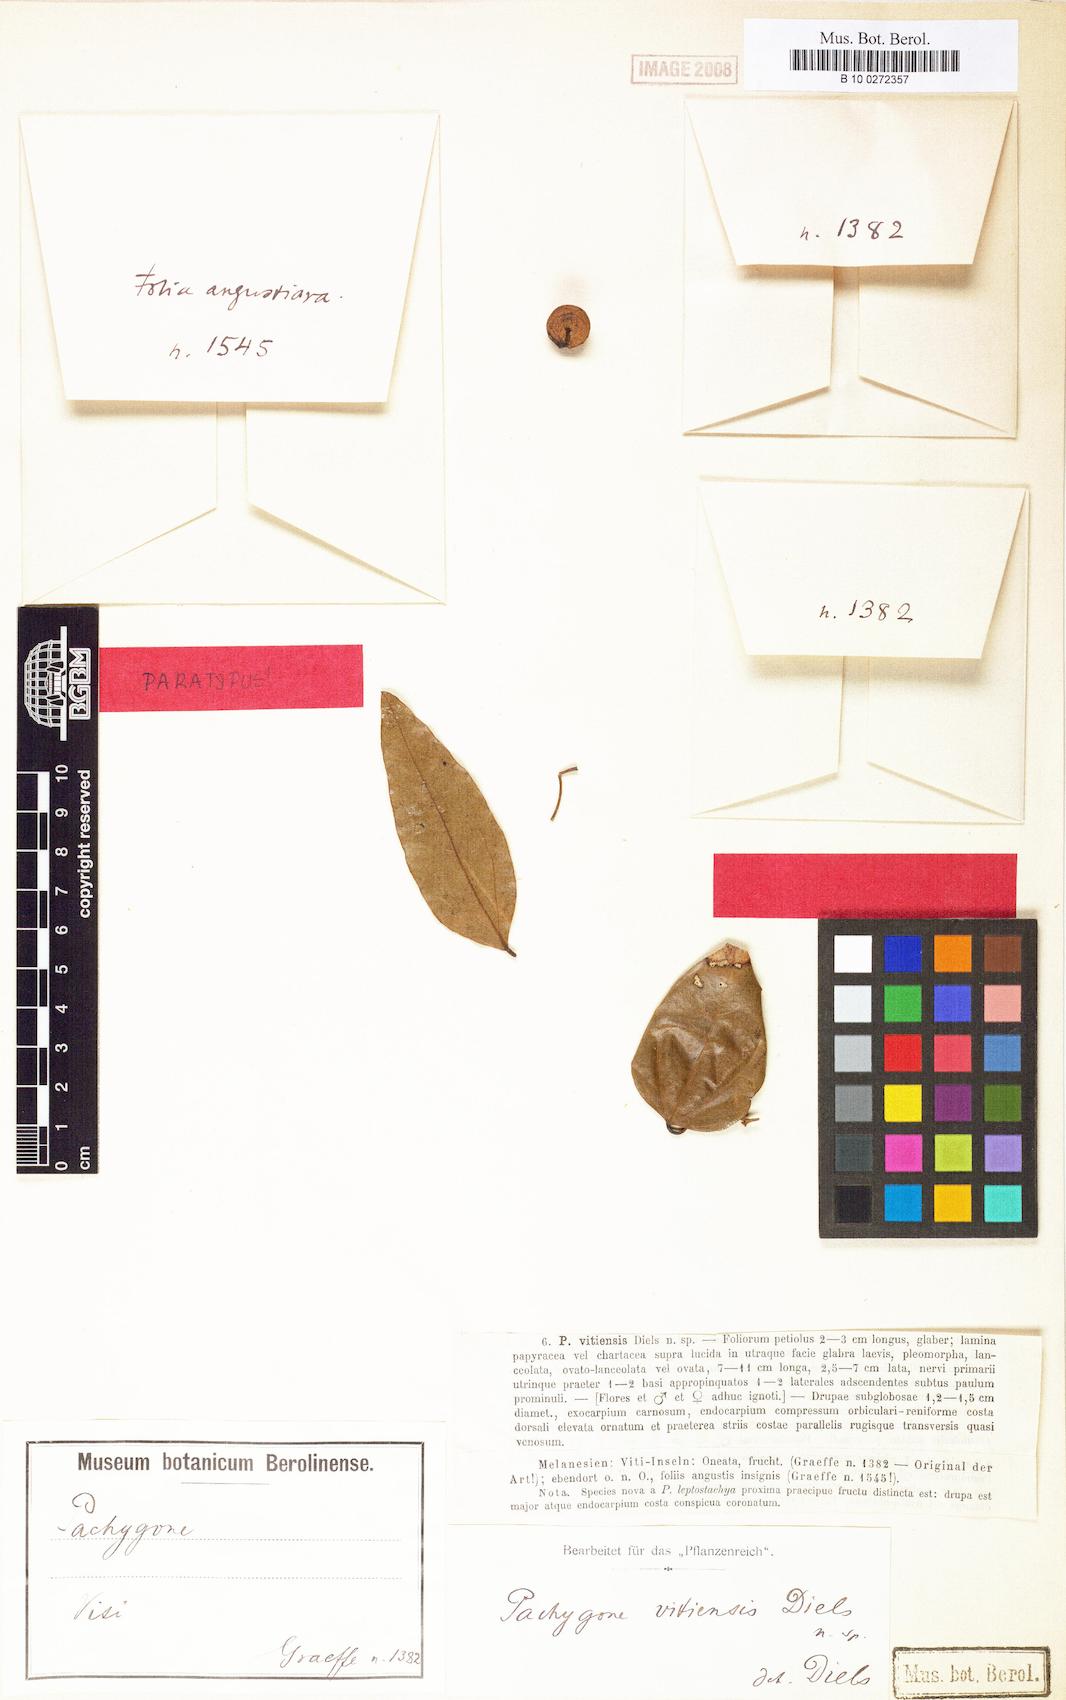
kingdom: Plantae
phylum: Tracheophyta
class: Magnoliopsida
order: Ranunculales
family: Menispermaceae
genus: Pachygone
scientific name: Pachygone vitiensis
